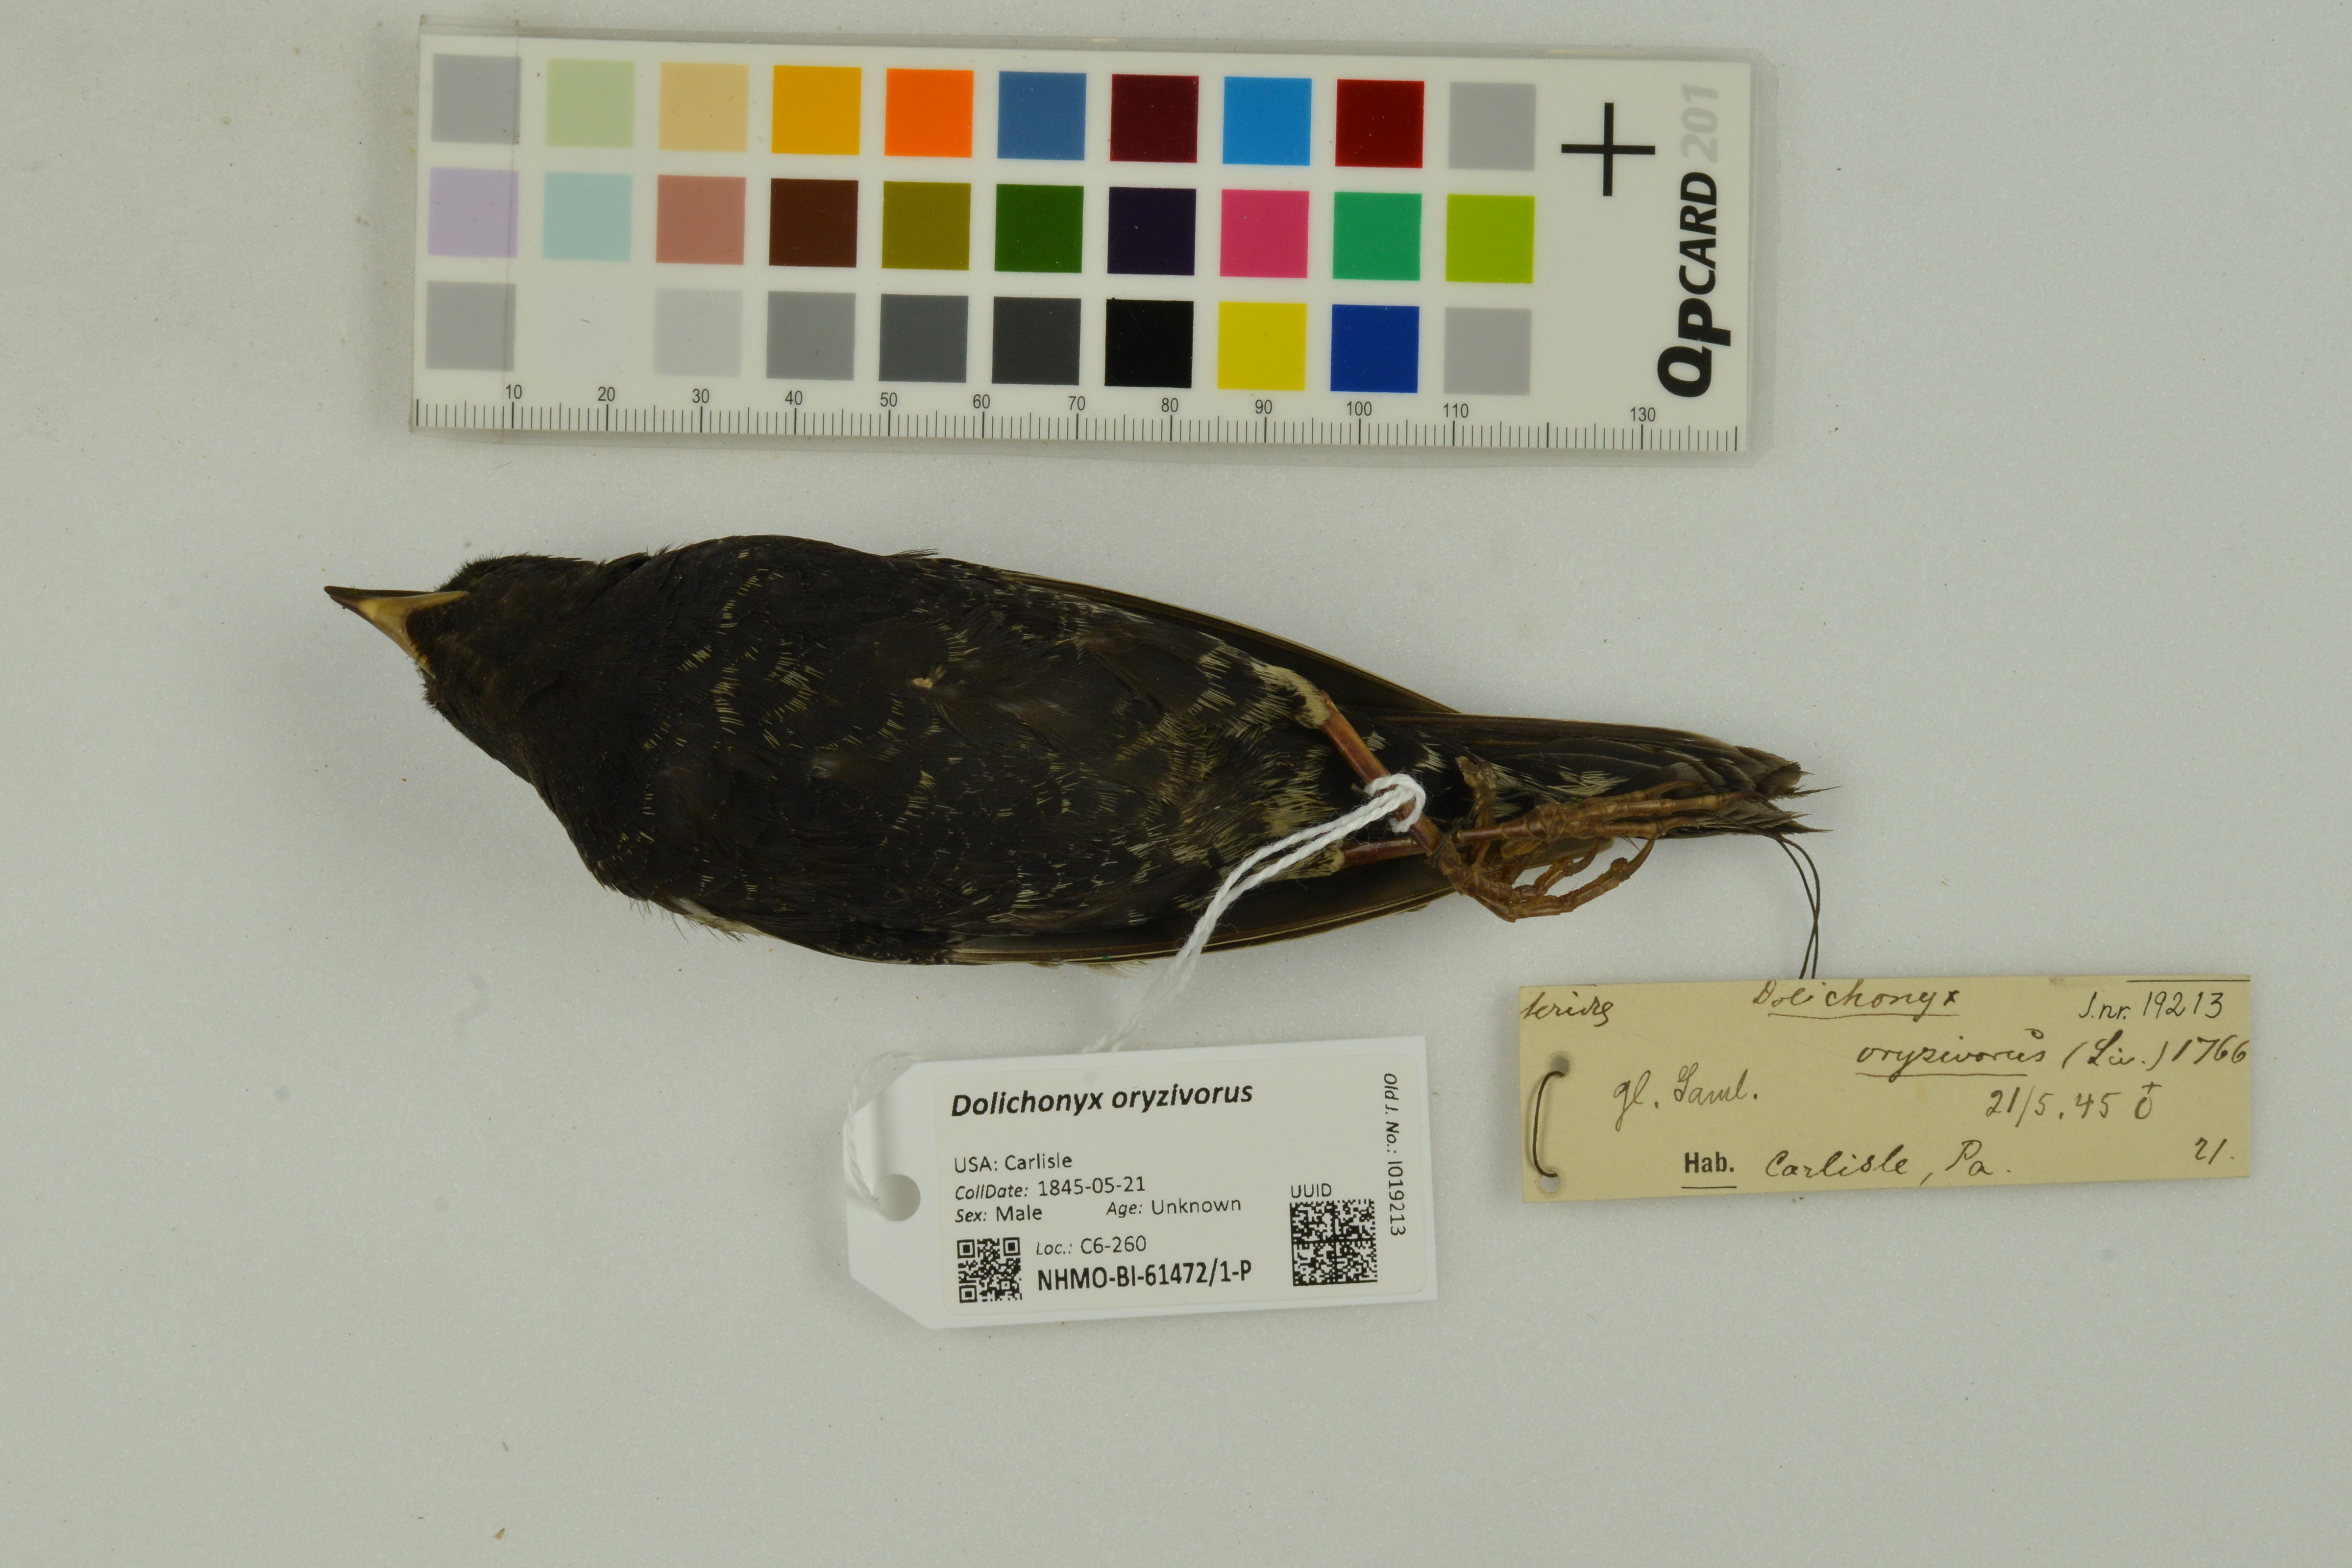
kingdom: Animalia
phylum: Chordata
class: Aves
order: Passeriformes
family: Icteridae
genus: Dolichonyx
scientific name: Dolichonyx oryzivorus
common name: Bobolink
